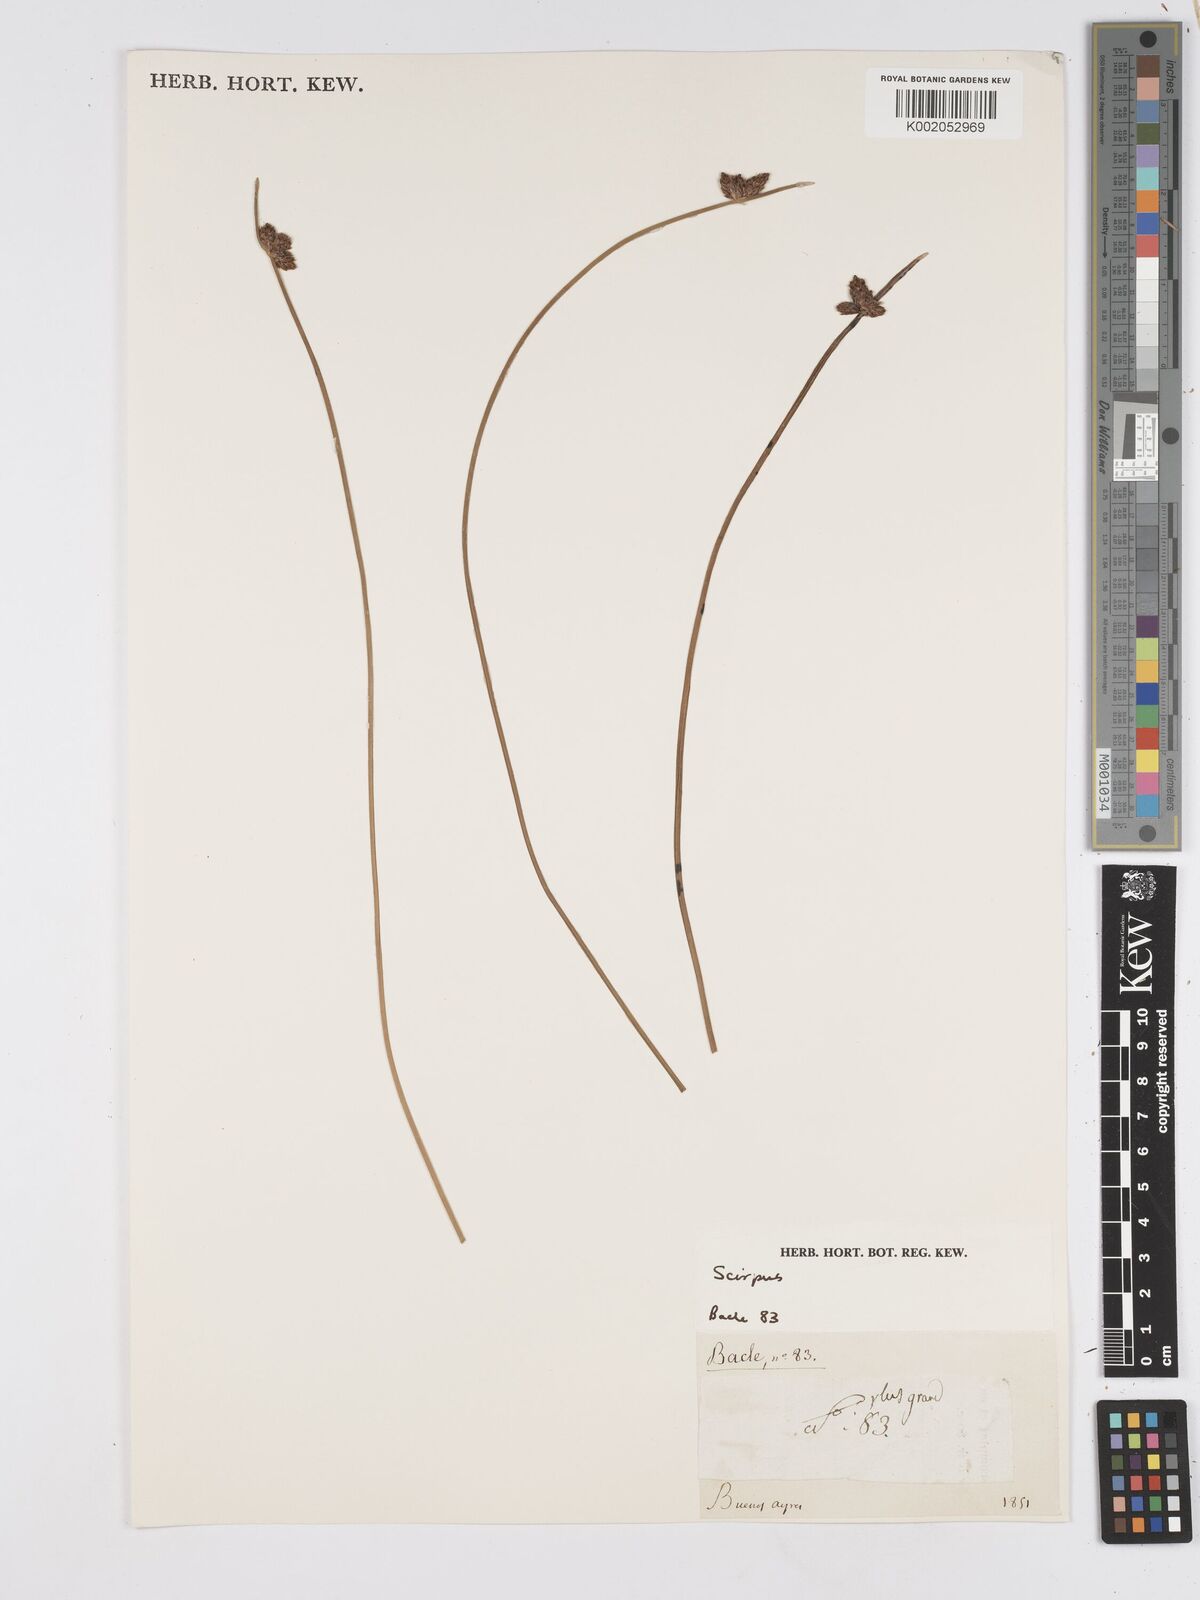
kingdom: Plantae
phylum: Tracheophyta
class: Liliopsida
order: Poales
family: Cyperaceae
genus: Scirpus
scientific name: Scirpus
